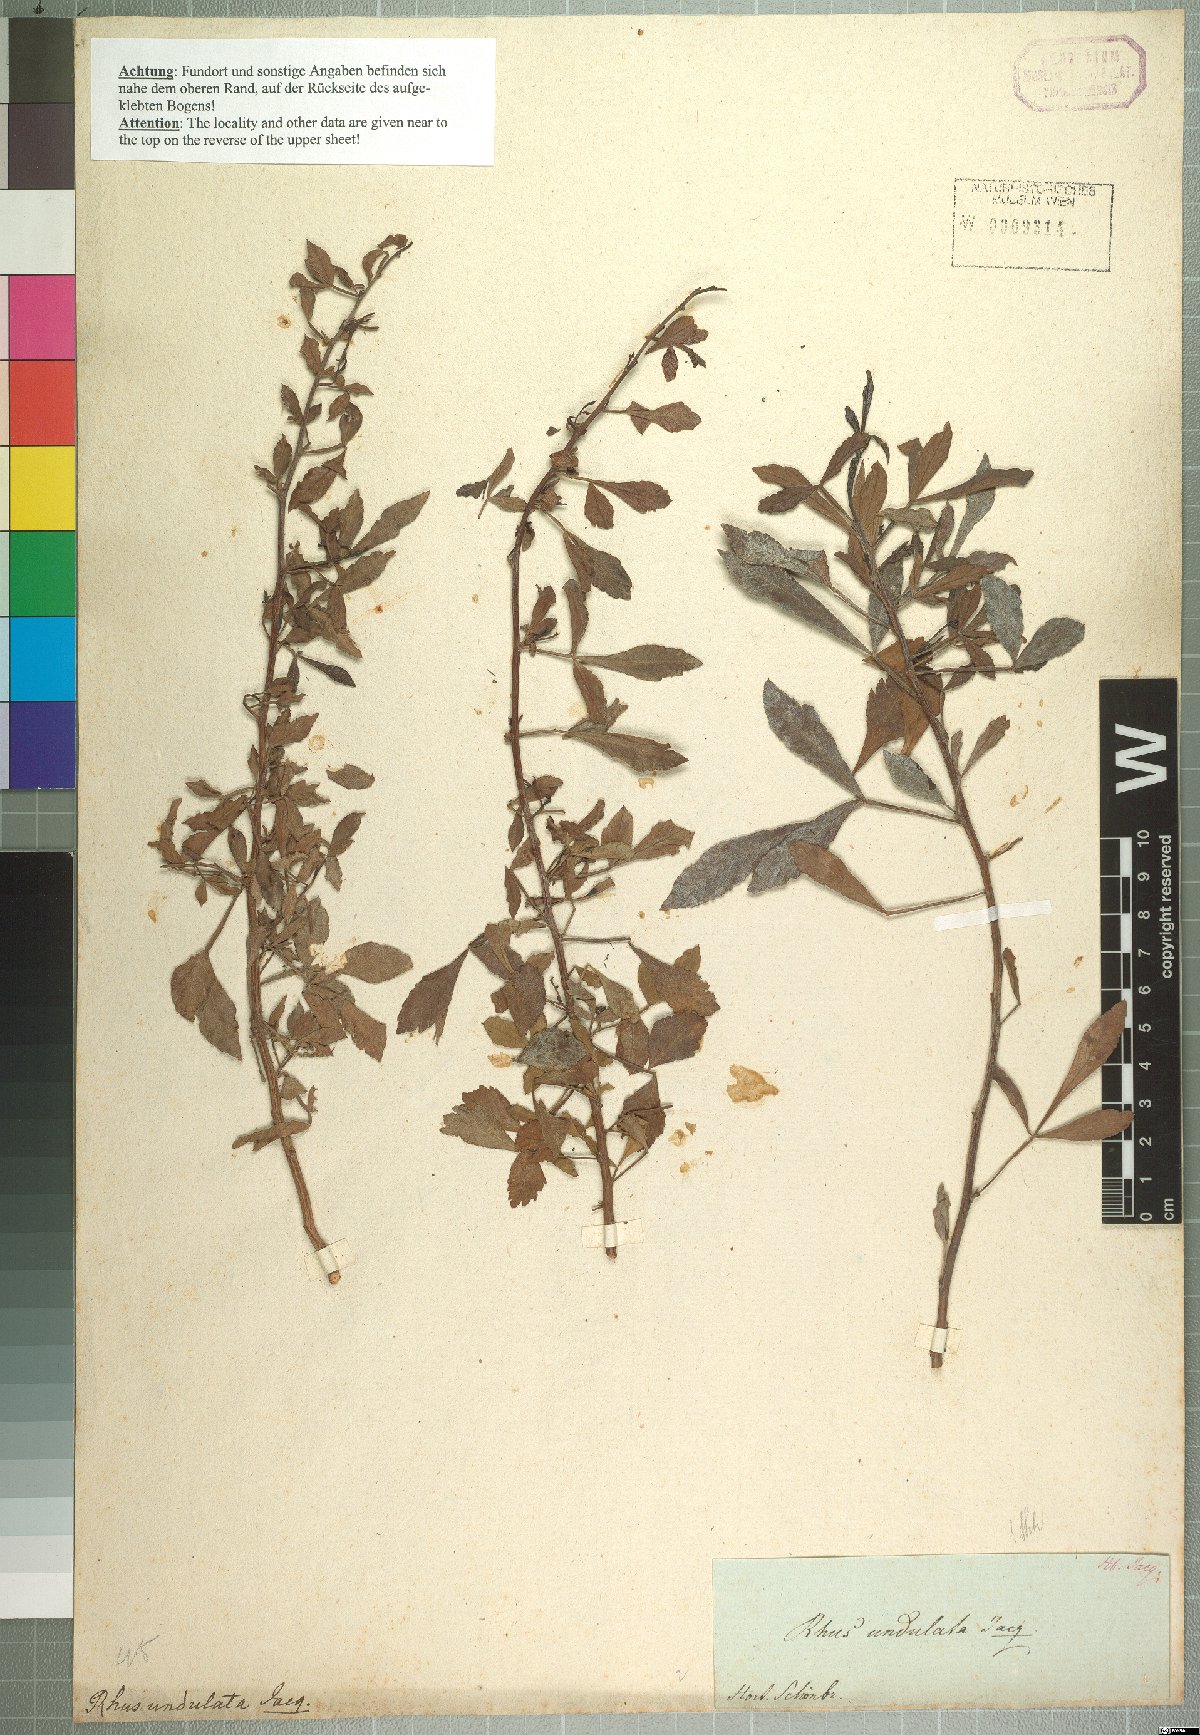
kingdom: Plantae
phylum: Tracheophyta
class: Magnoliopsida
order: Sapindales
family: Anacardiaceae
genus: Searsia
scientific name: Searsia undulata
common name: Namaqua kunibush
